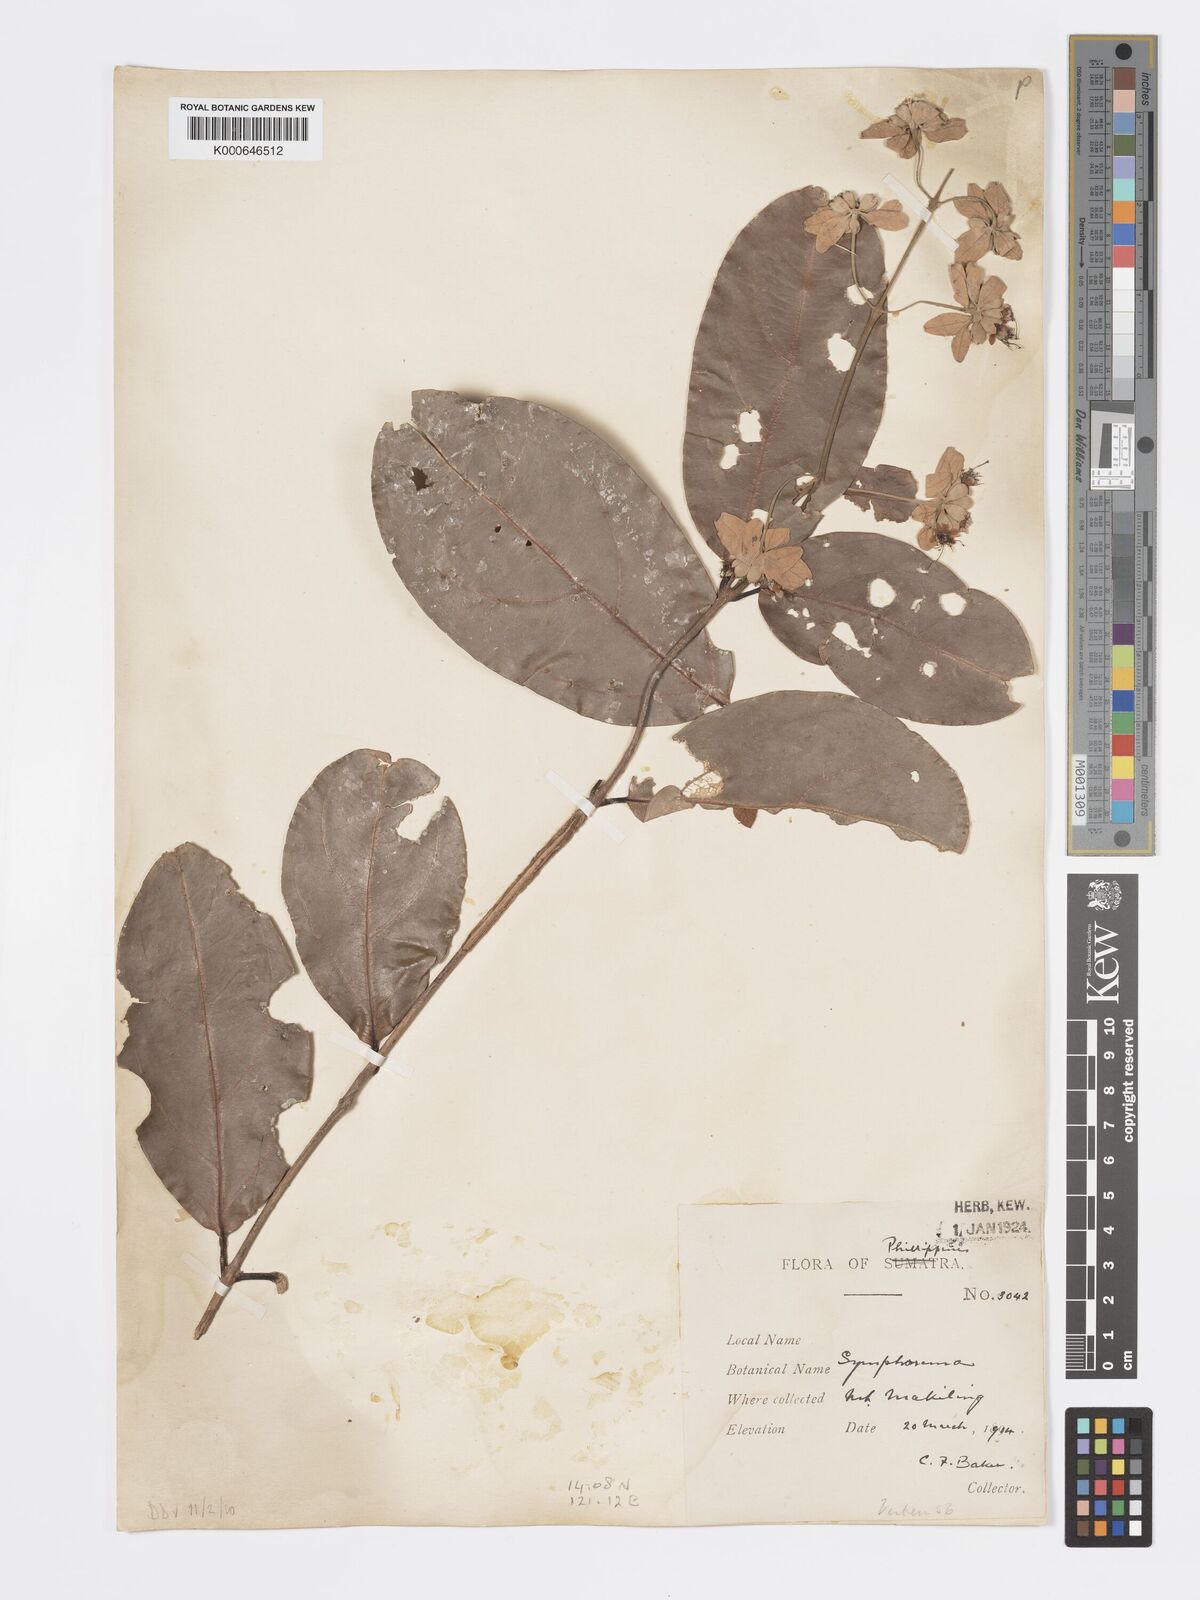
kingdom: Plantae
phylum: Tracheophyta
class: Magnoliopsida
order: Lamiales
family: Lamiaceae
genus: Symphorema
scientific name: Symphorema luzonicum
